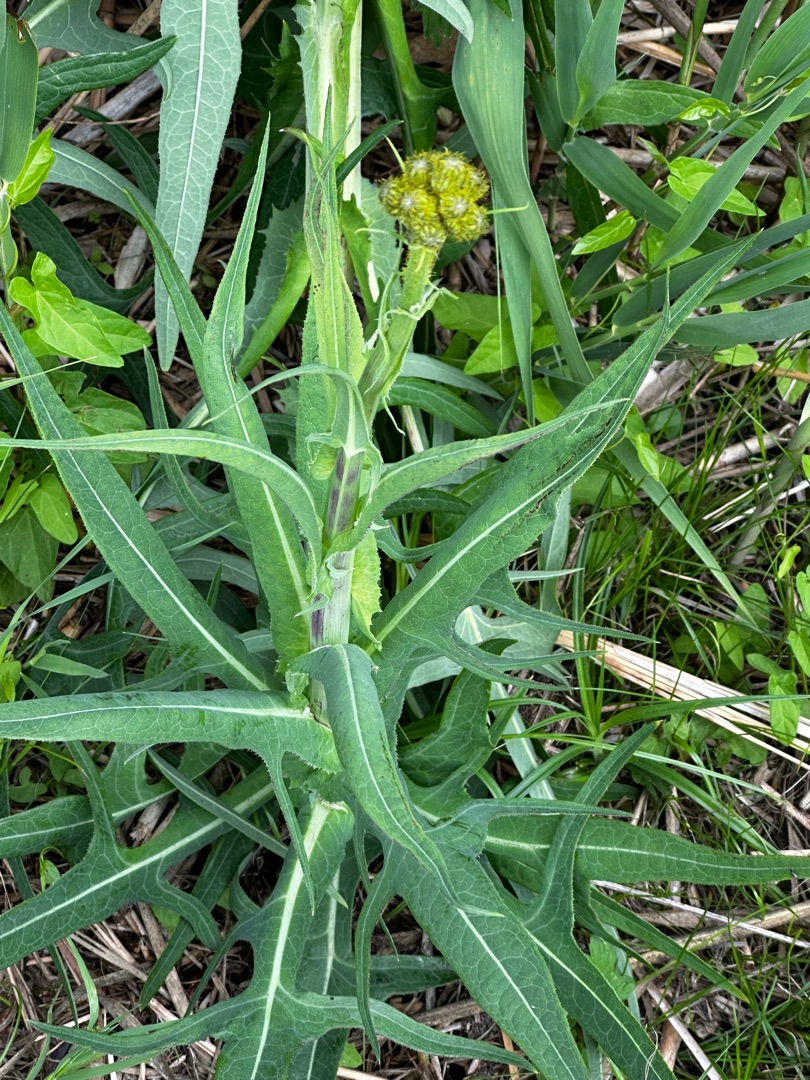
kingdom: Plantae
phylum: Tracheophyta
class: Magnoliopsida
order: Asterales
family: Asteraceae
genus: Sonchus
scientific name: Sonchus palustris
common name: Kær-svinemælk
